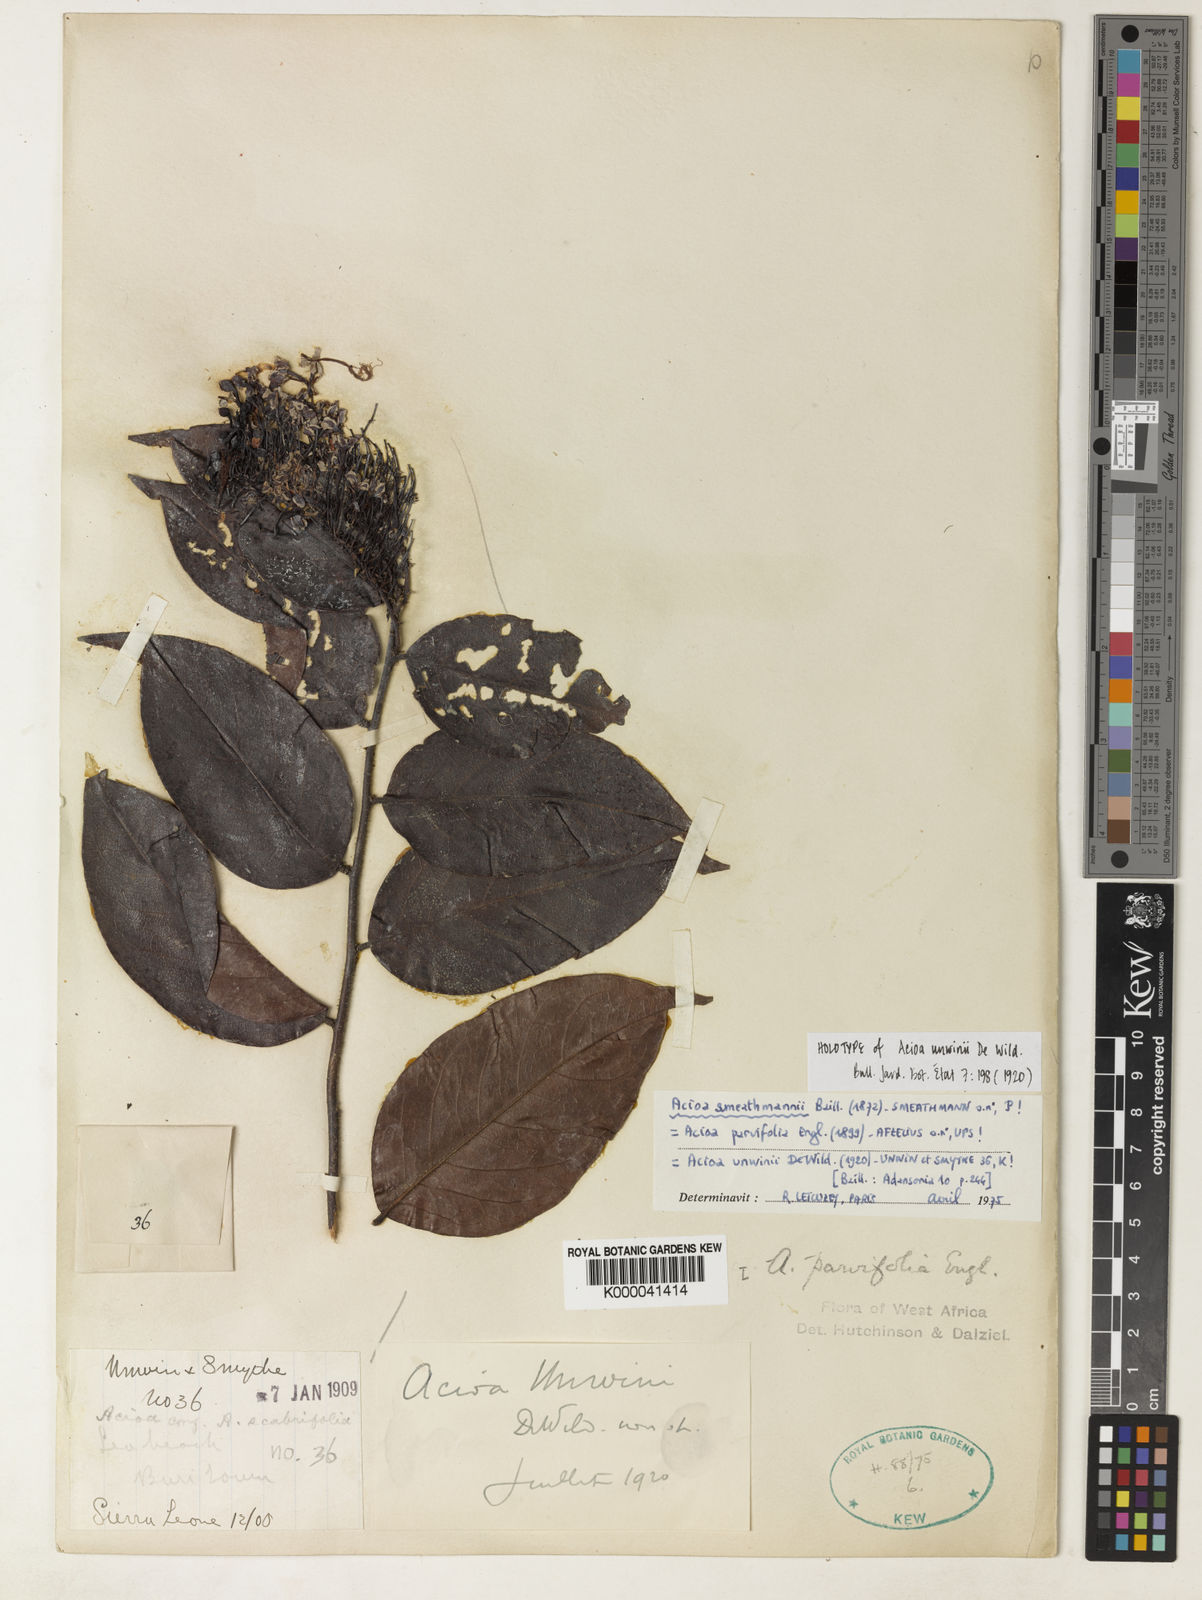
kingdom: Plantae
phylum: Tracheophyta
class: Magnoliopsida
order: Malpighiales
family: Chrysobalanaceae
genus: Dactyladenia
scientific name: Dactyladenia smeathmannii
